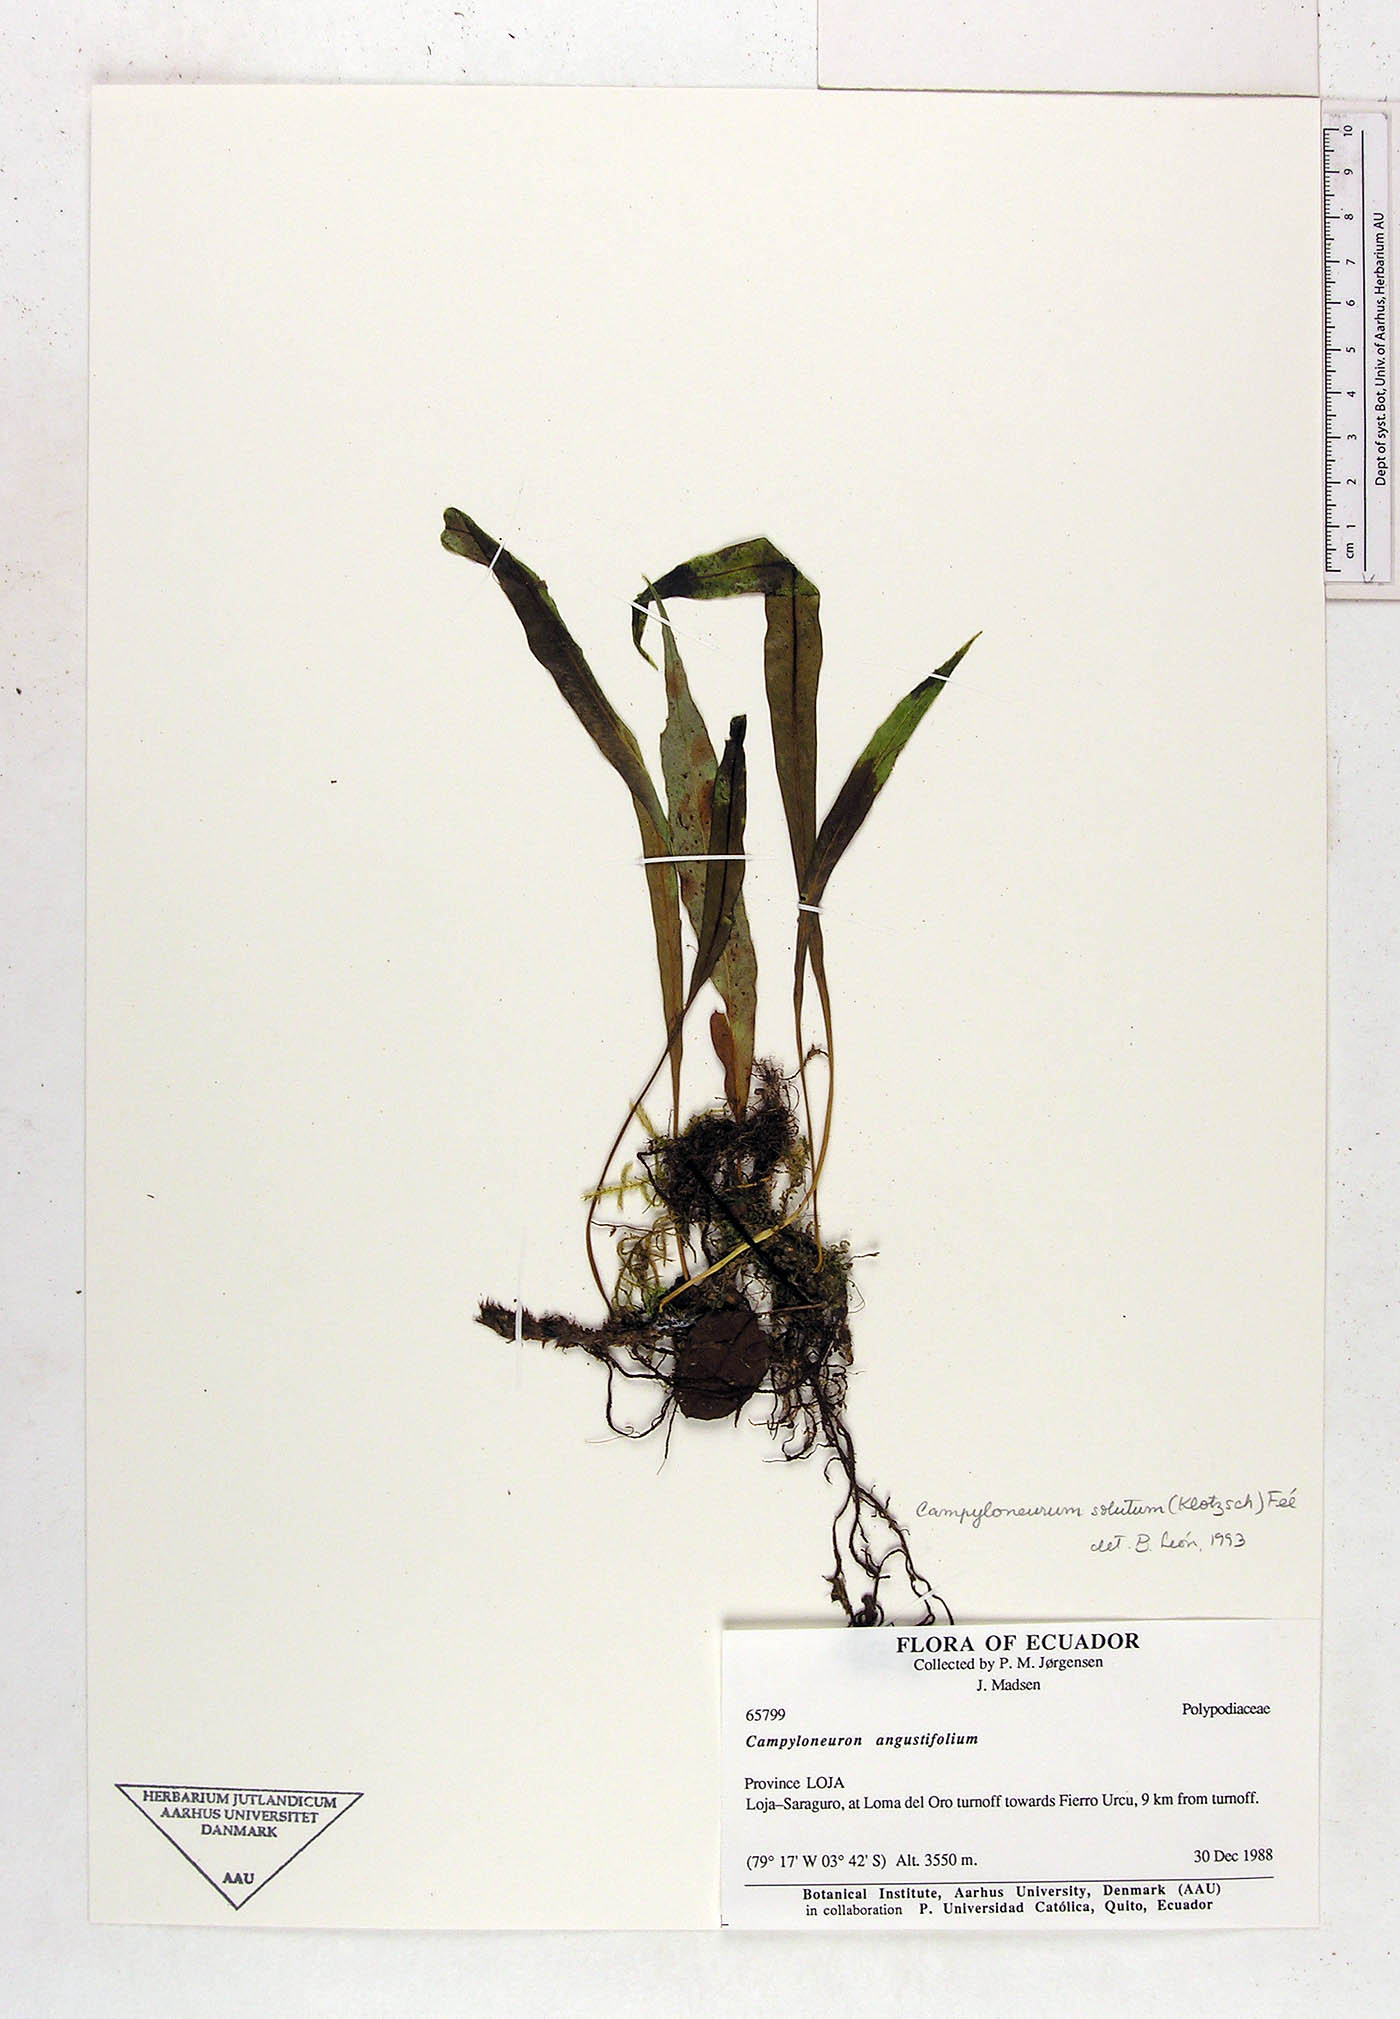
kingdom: Plantae
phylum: Tracheophyta
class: Polypodiopsida
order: Polypodiales
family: Polypodiaceae
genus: Campyloneurum
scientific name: Campyloneurum solutum
